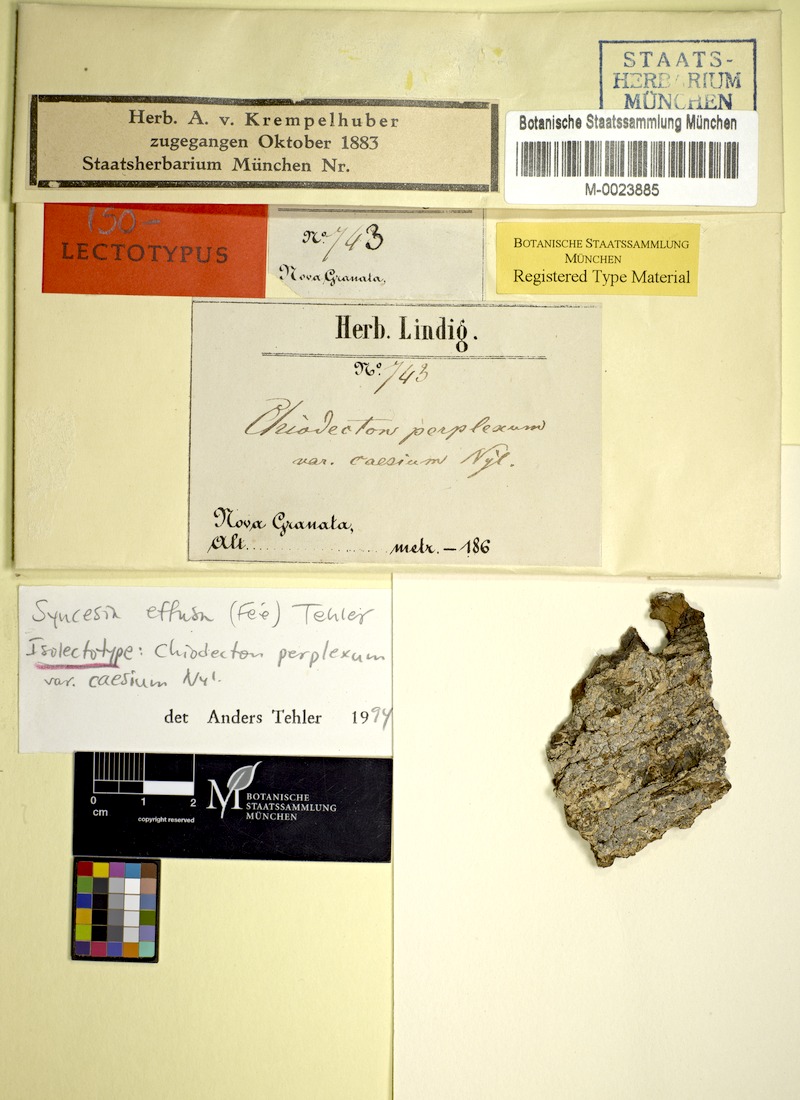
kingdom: Fungi
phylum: Ascomycota
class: Arthoniomycetes
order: Arthoniales
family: Roccellaceae
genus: Chiodecton
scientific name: Chiodecton effusum
